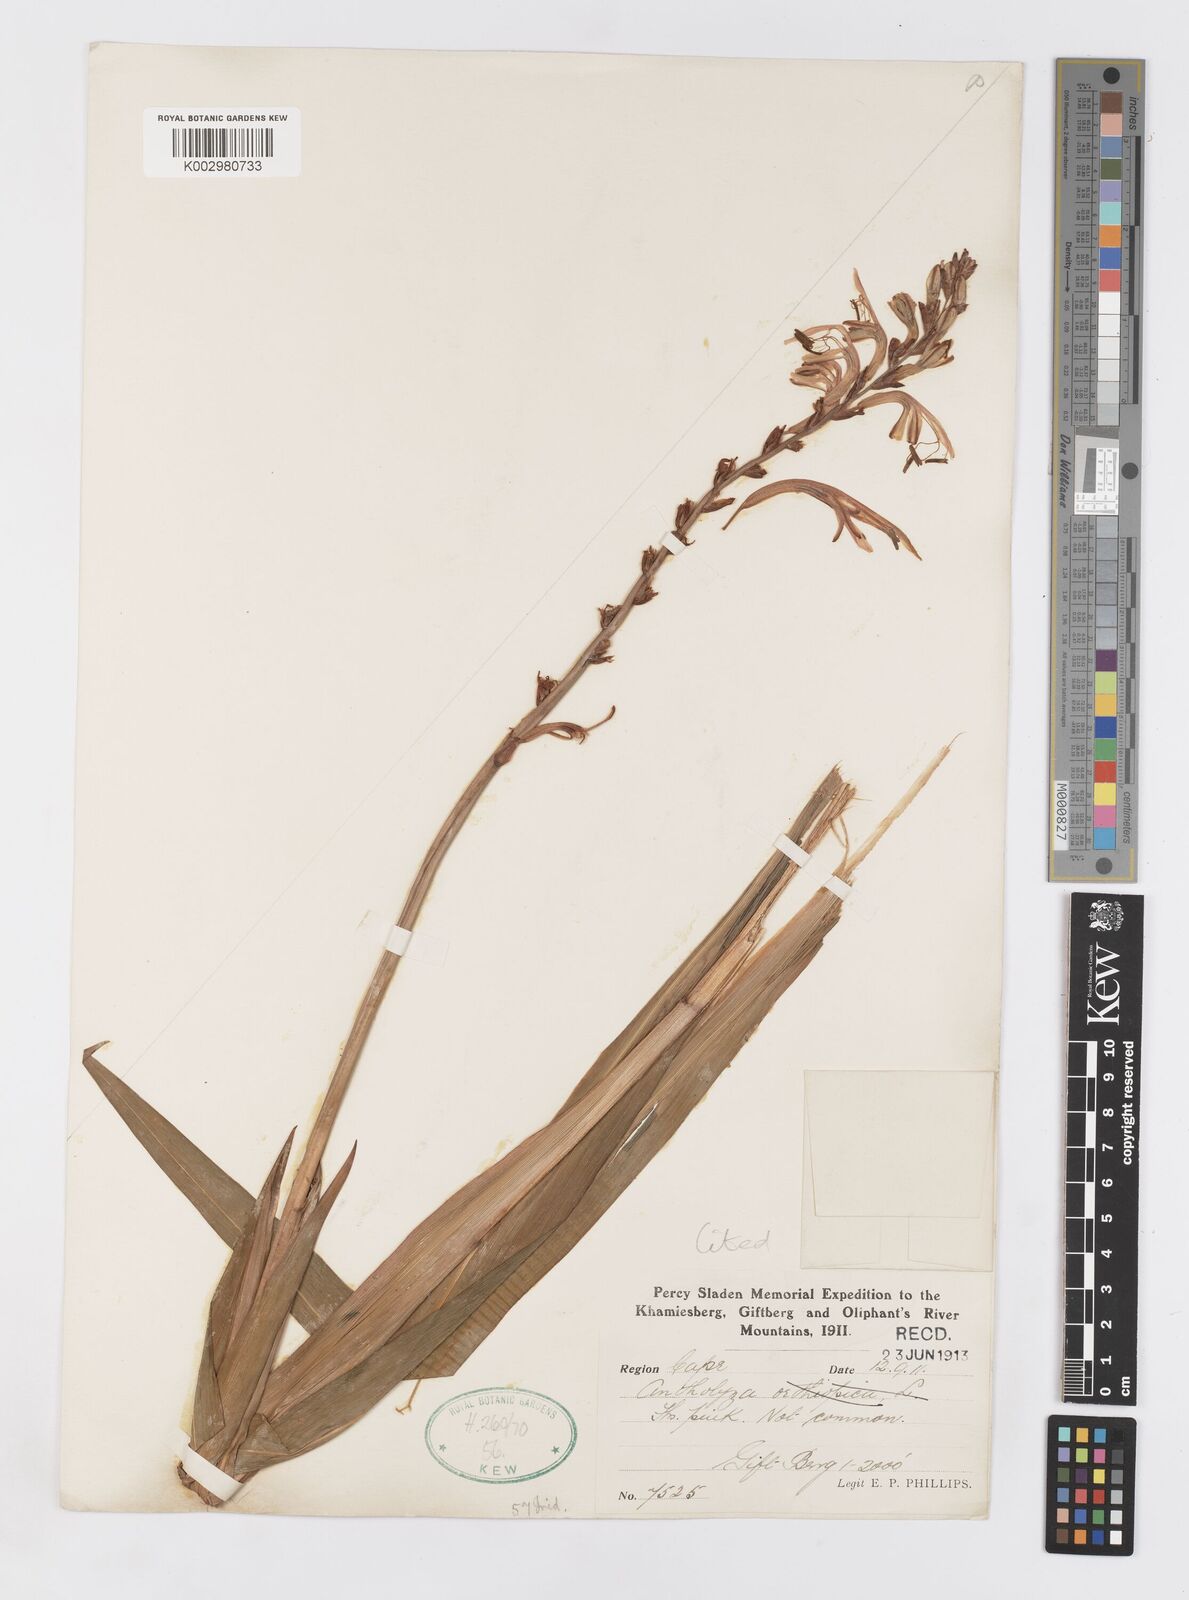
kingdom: Plantae
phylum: Tracheophyta
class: Liliopsida
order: Asparagales
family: Iridaceae
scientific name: Iridaceae
